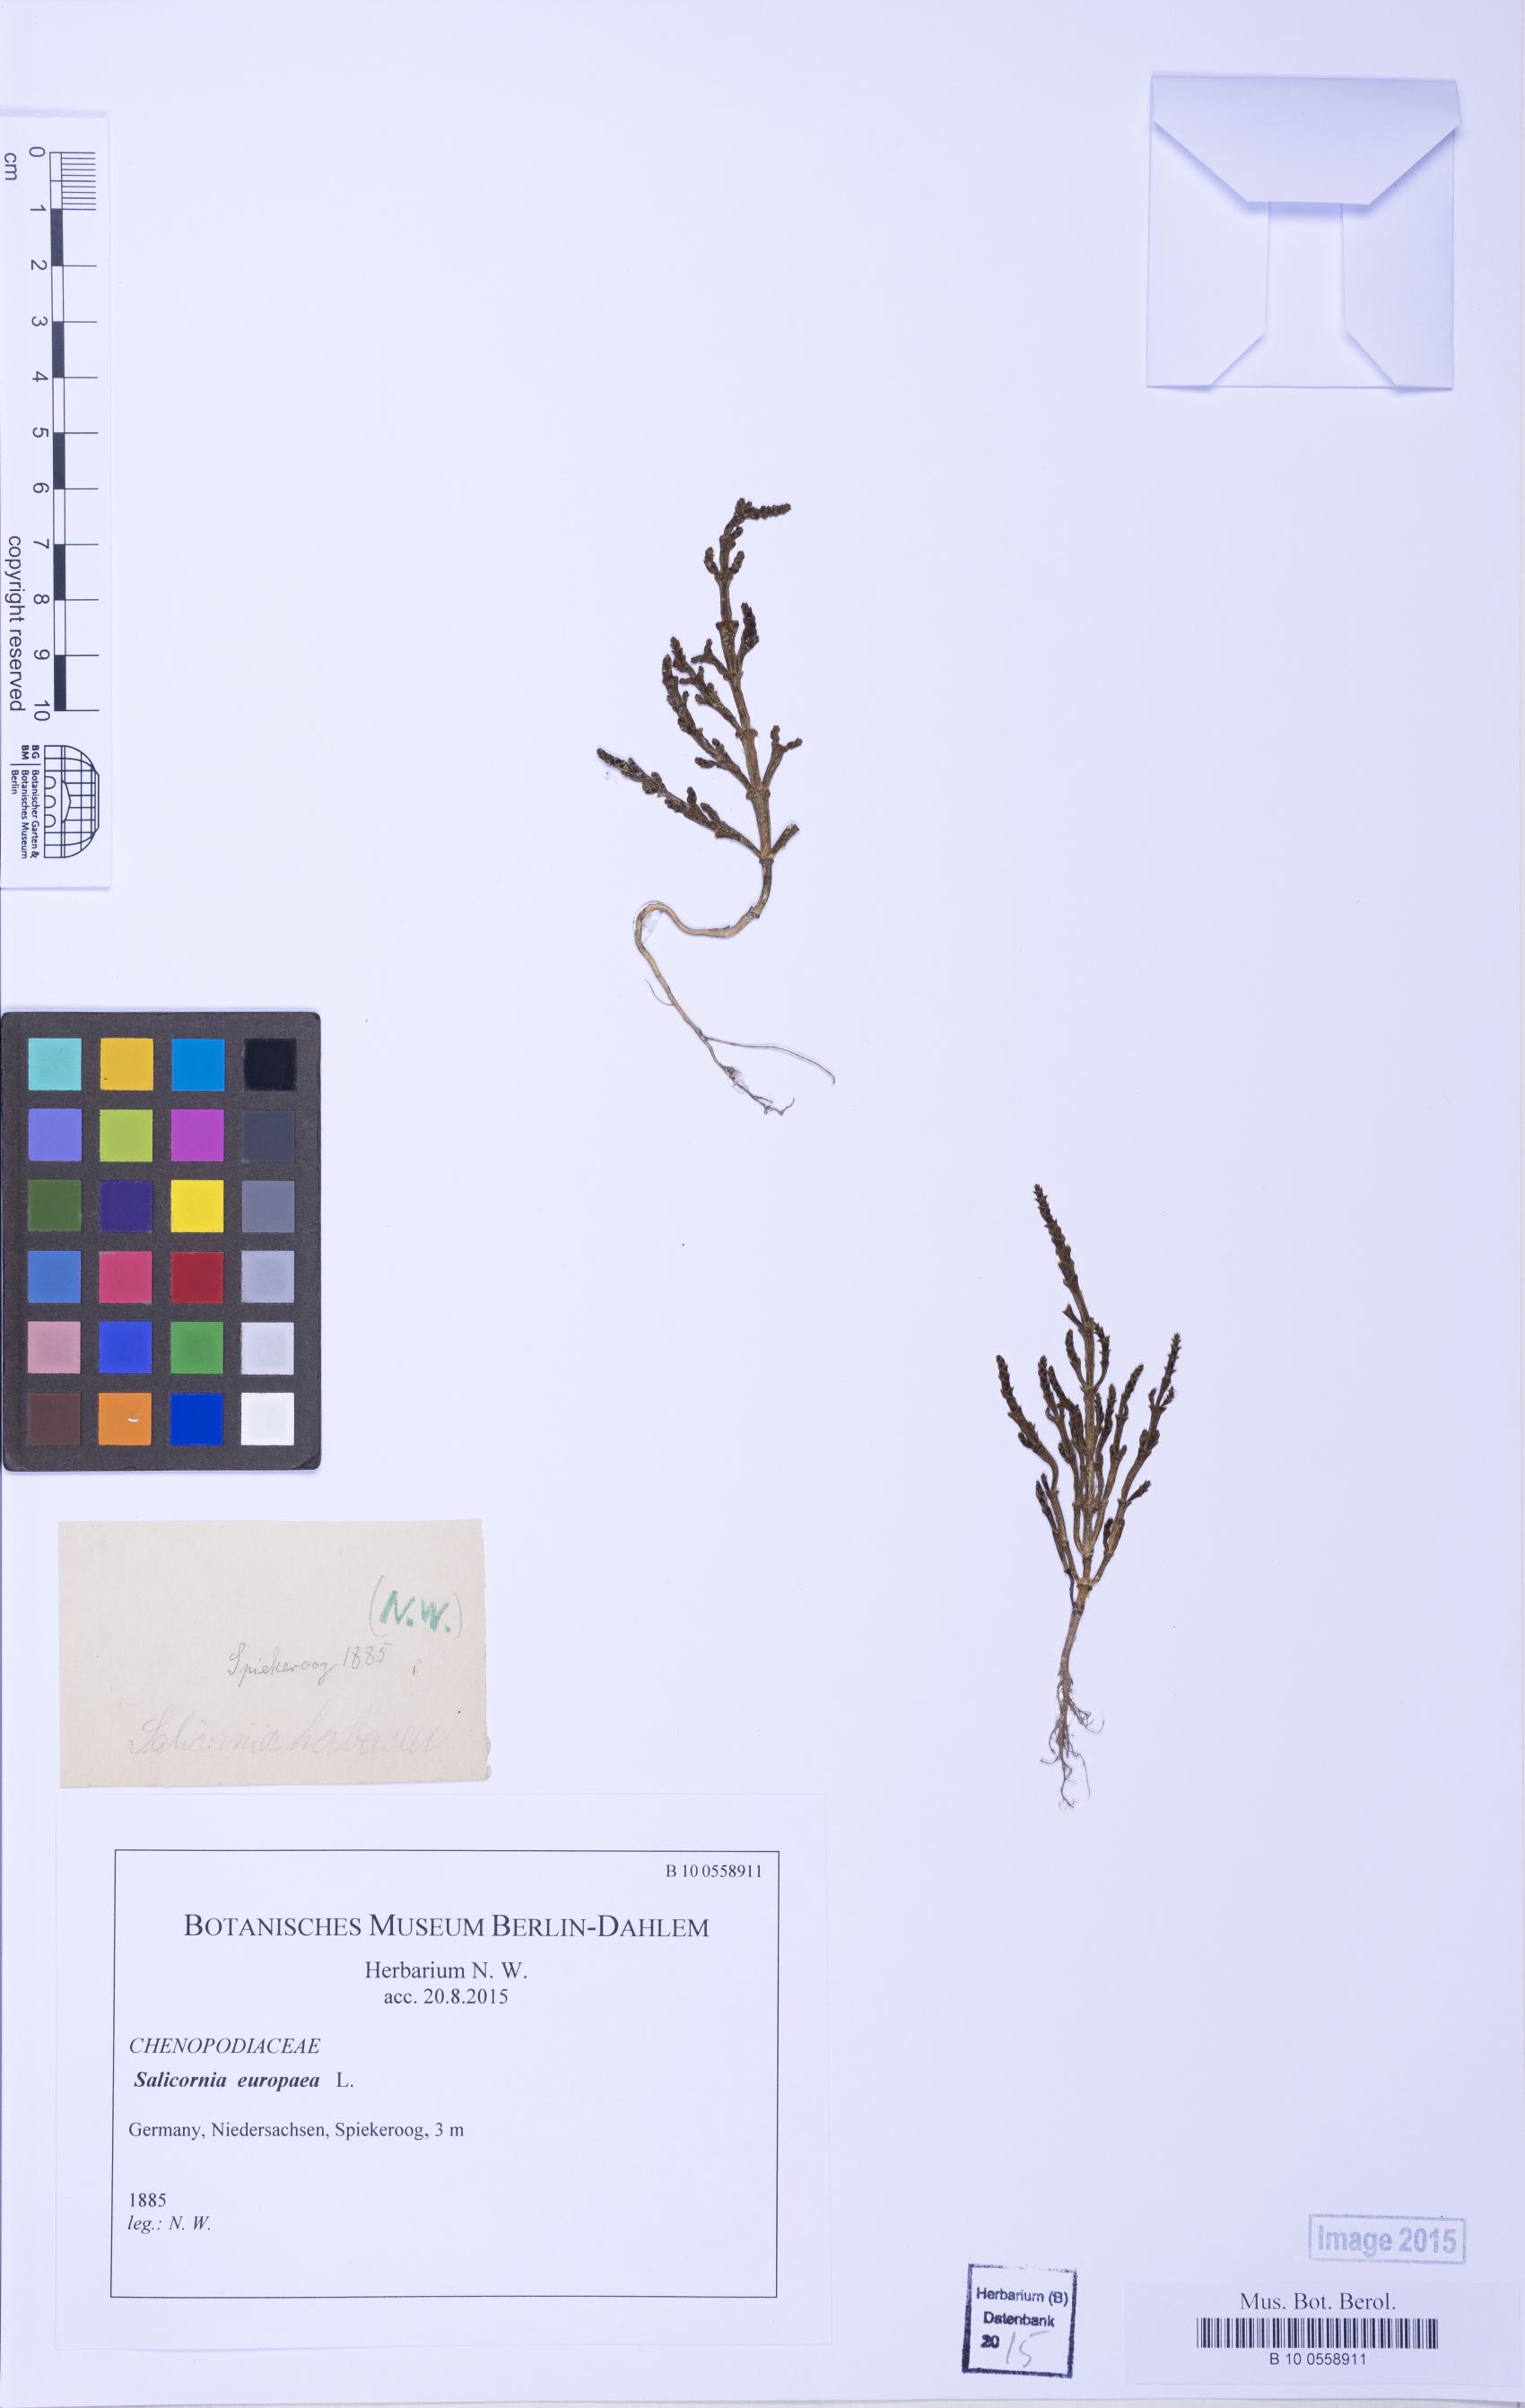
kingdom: Plantae
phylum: Tracheophyta
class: Magnoliopsida
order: Caryophyllales
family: Amaranthaceae
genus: Salicornia
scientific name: Salicornia europaea
